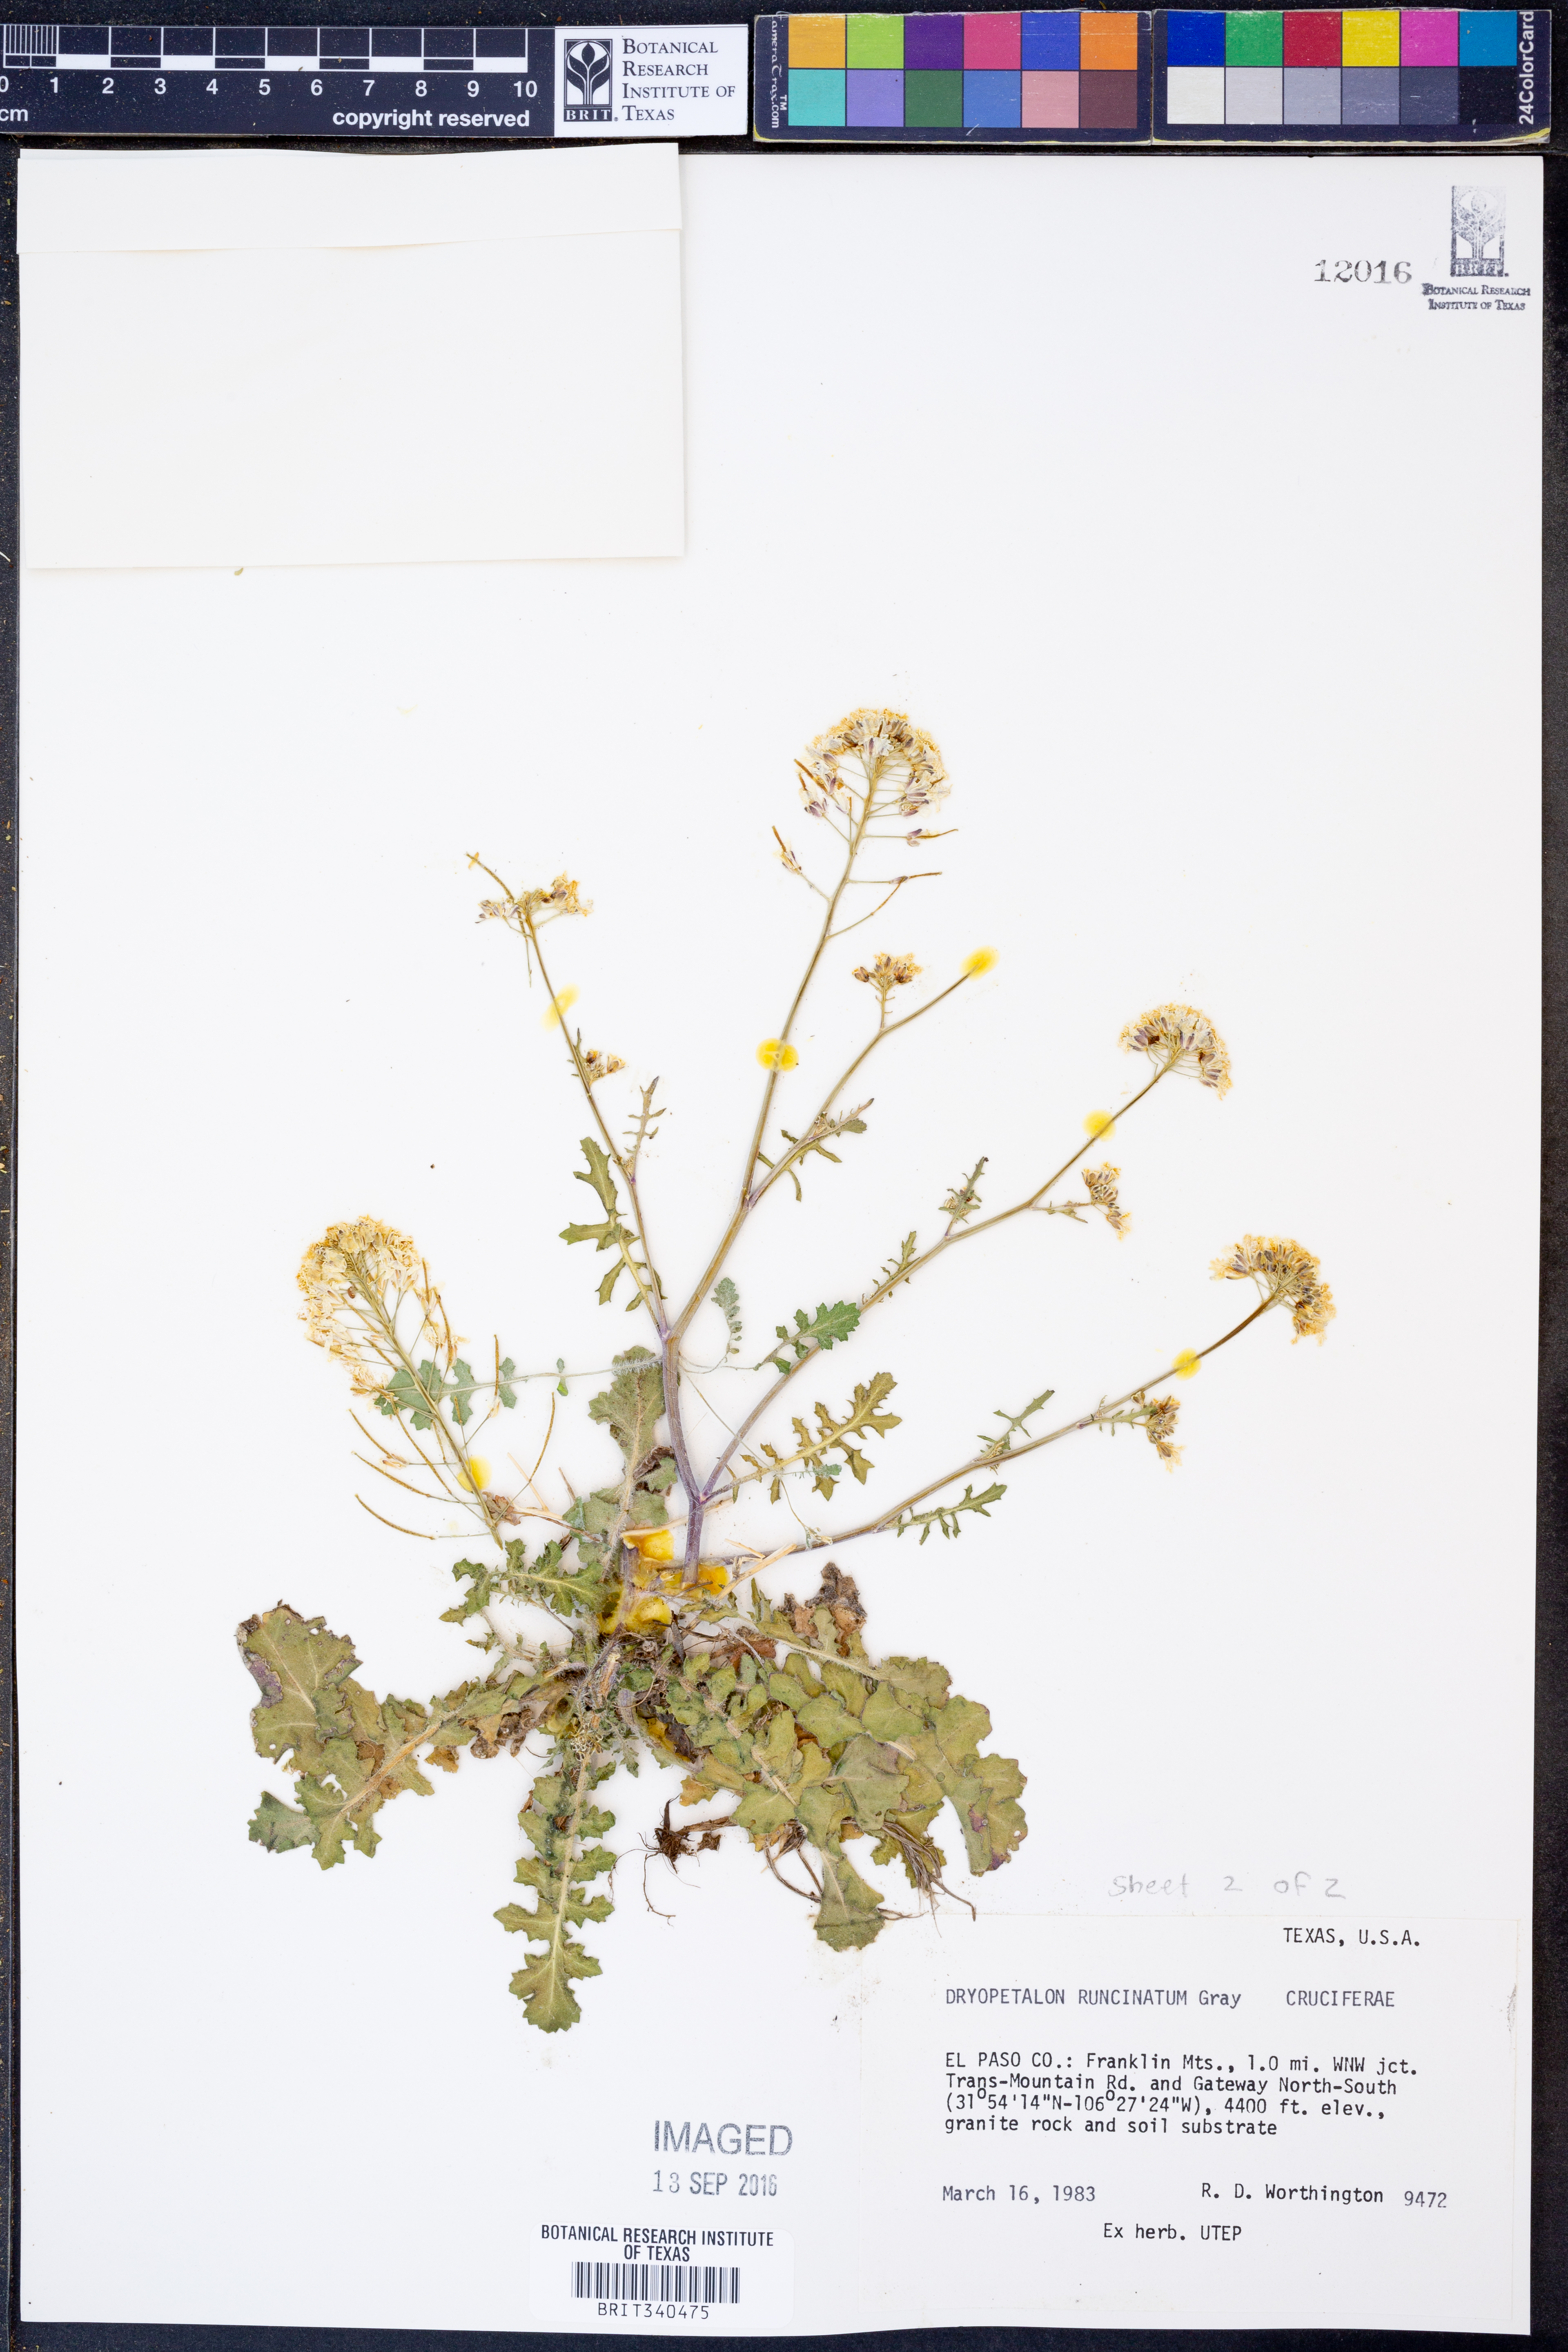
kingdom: Plantae
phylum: Tracheophyta
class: Magnoliopsida
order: Brassicales
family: Brassicaceae
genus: Dryopetalon
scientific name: Dryopetalon runcinatum
